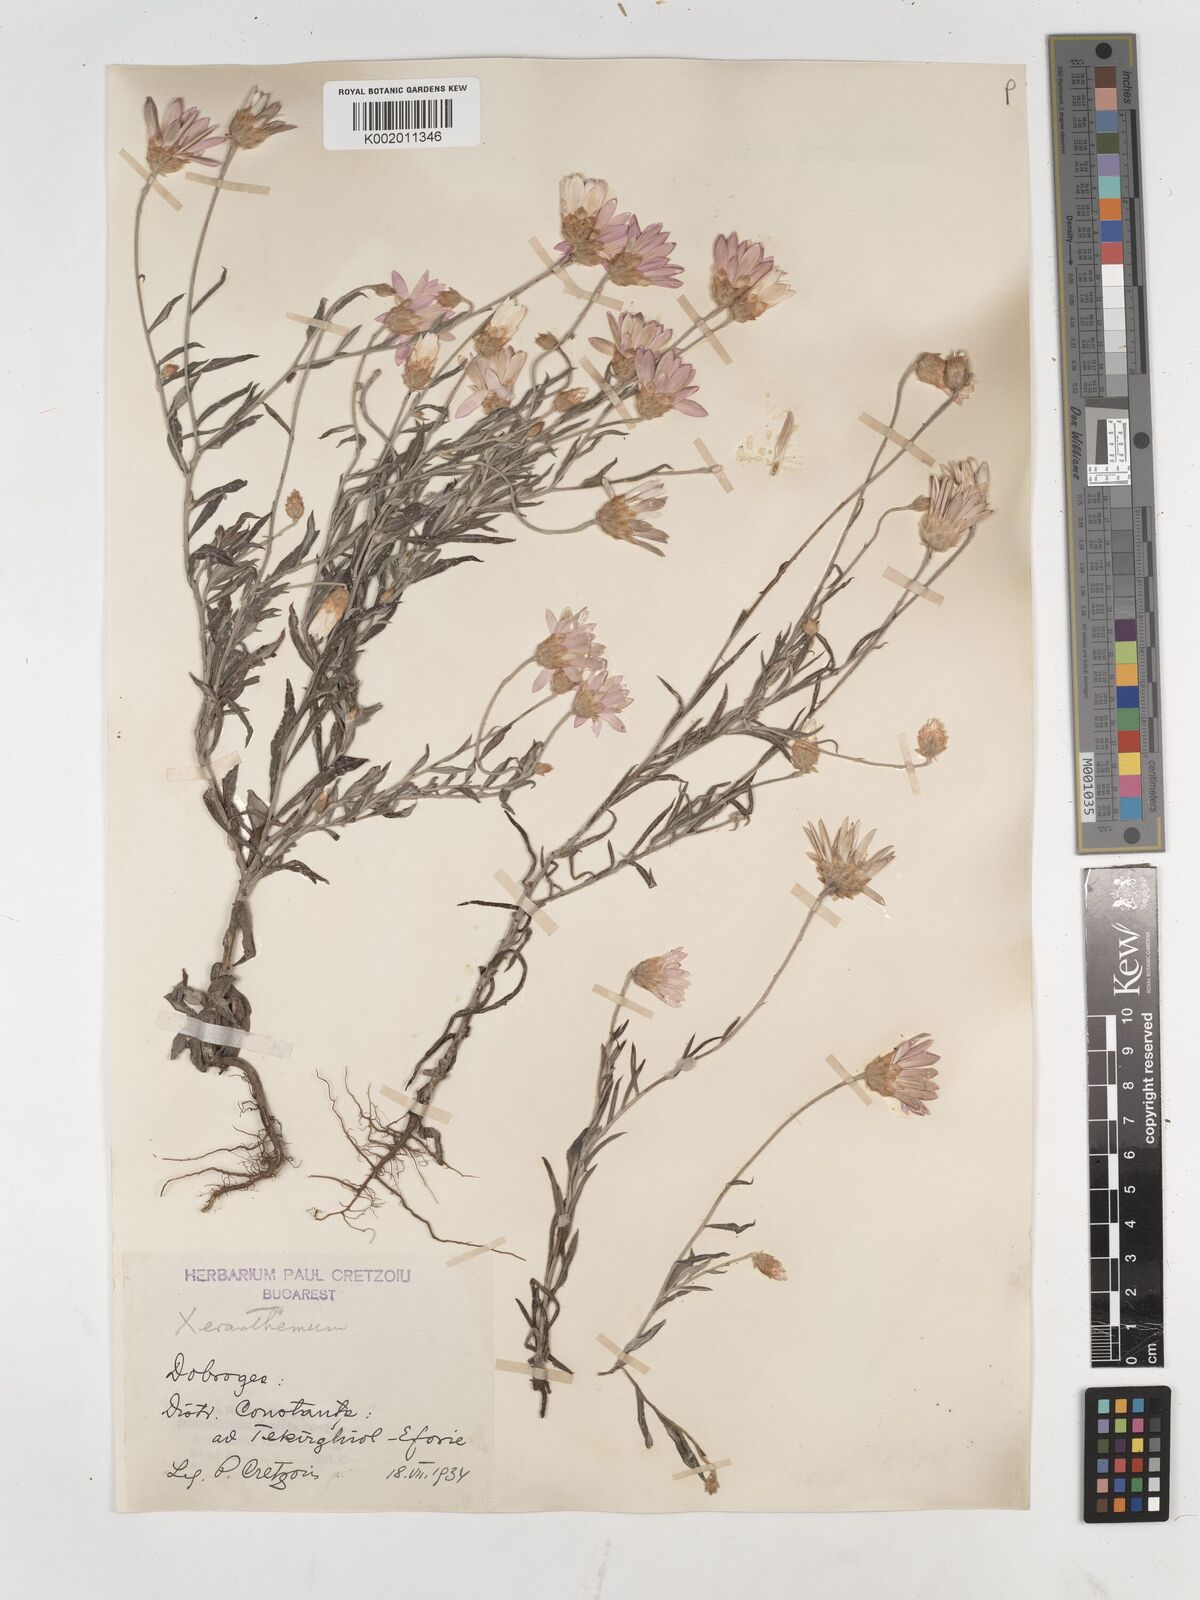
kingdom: Plantae
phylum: Tracheophyta
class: Magnoliopsida
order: Asterales
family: Asteraceae
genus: Xeranthemum
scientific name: Xeranthemum annuum
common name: Immortelle
